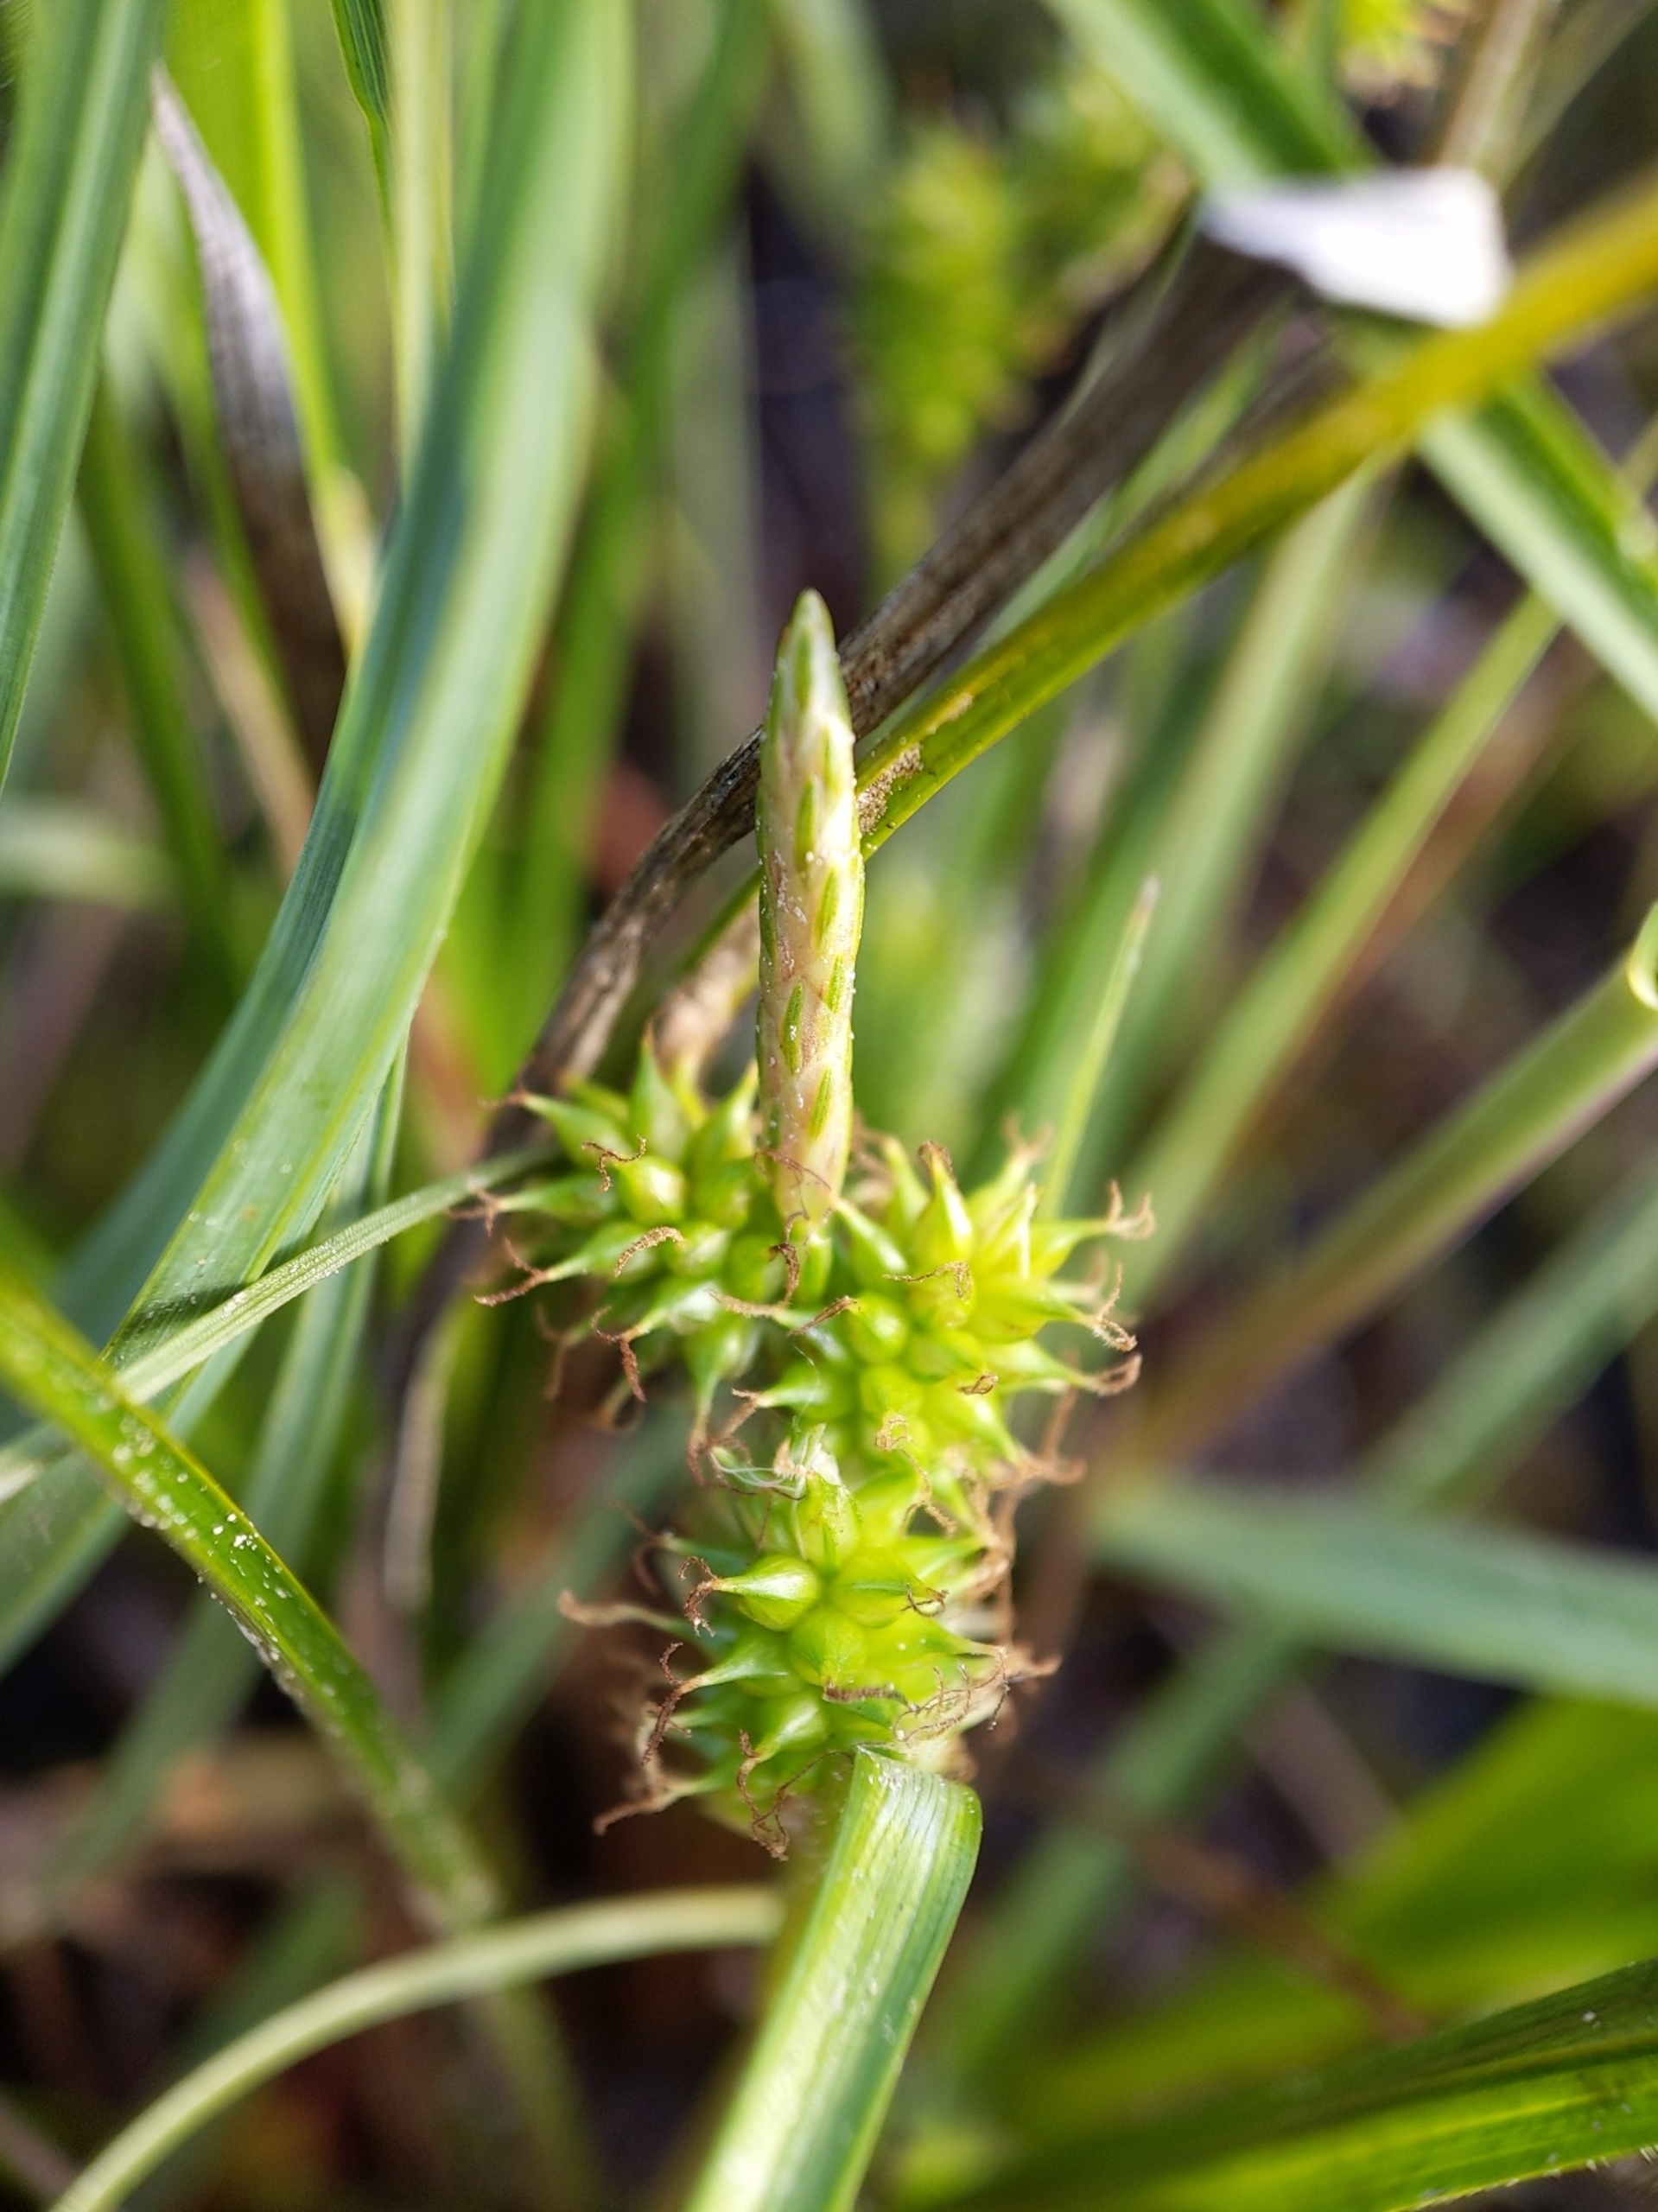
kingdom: Plantae
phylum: Tracheophyta
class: Liliopsida
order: Poales
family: Cyperaceae
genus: Carex
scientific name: Carex oederi
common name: Dværg-star
